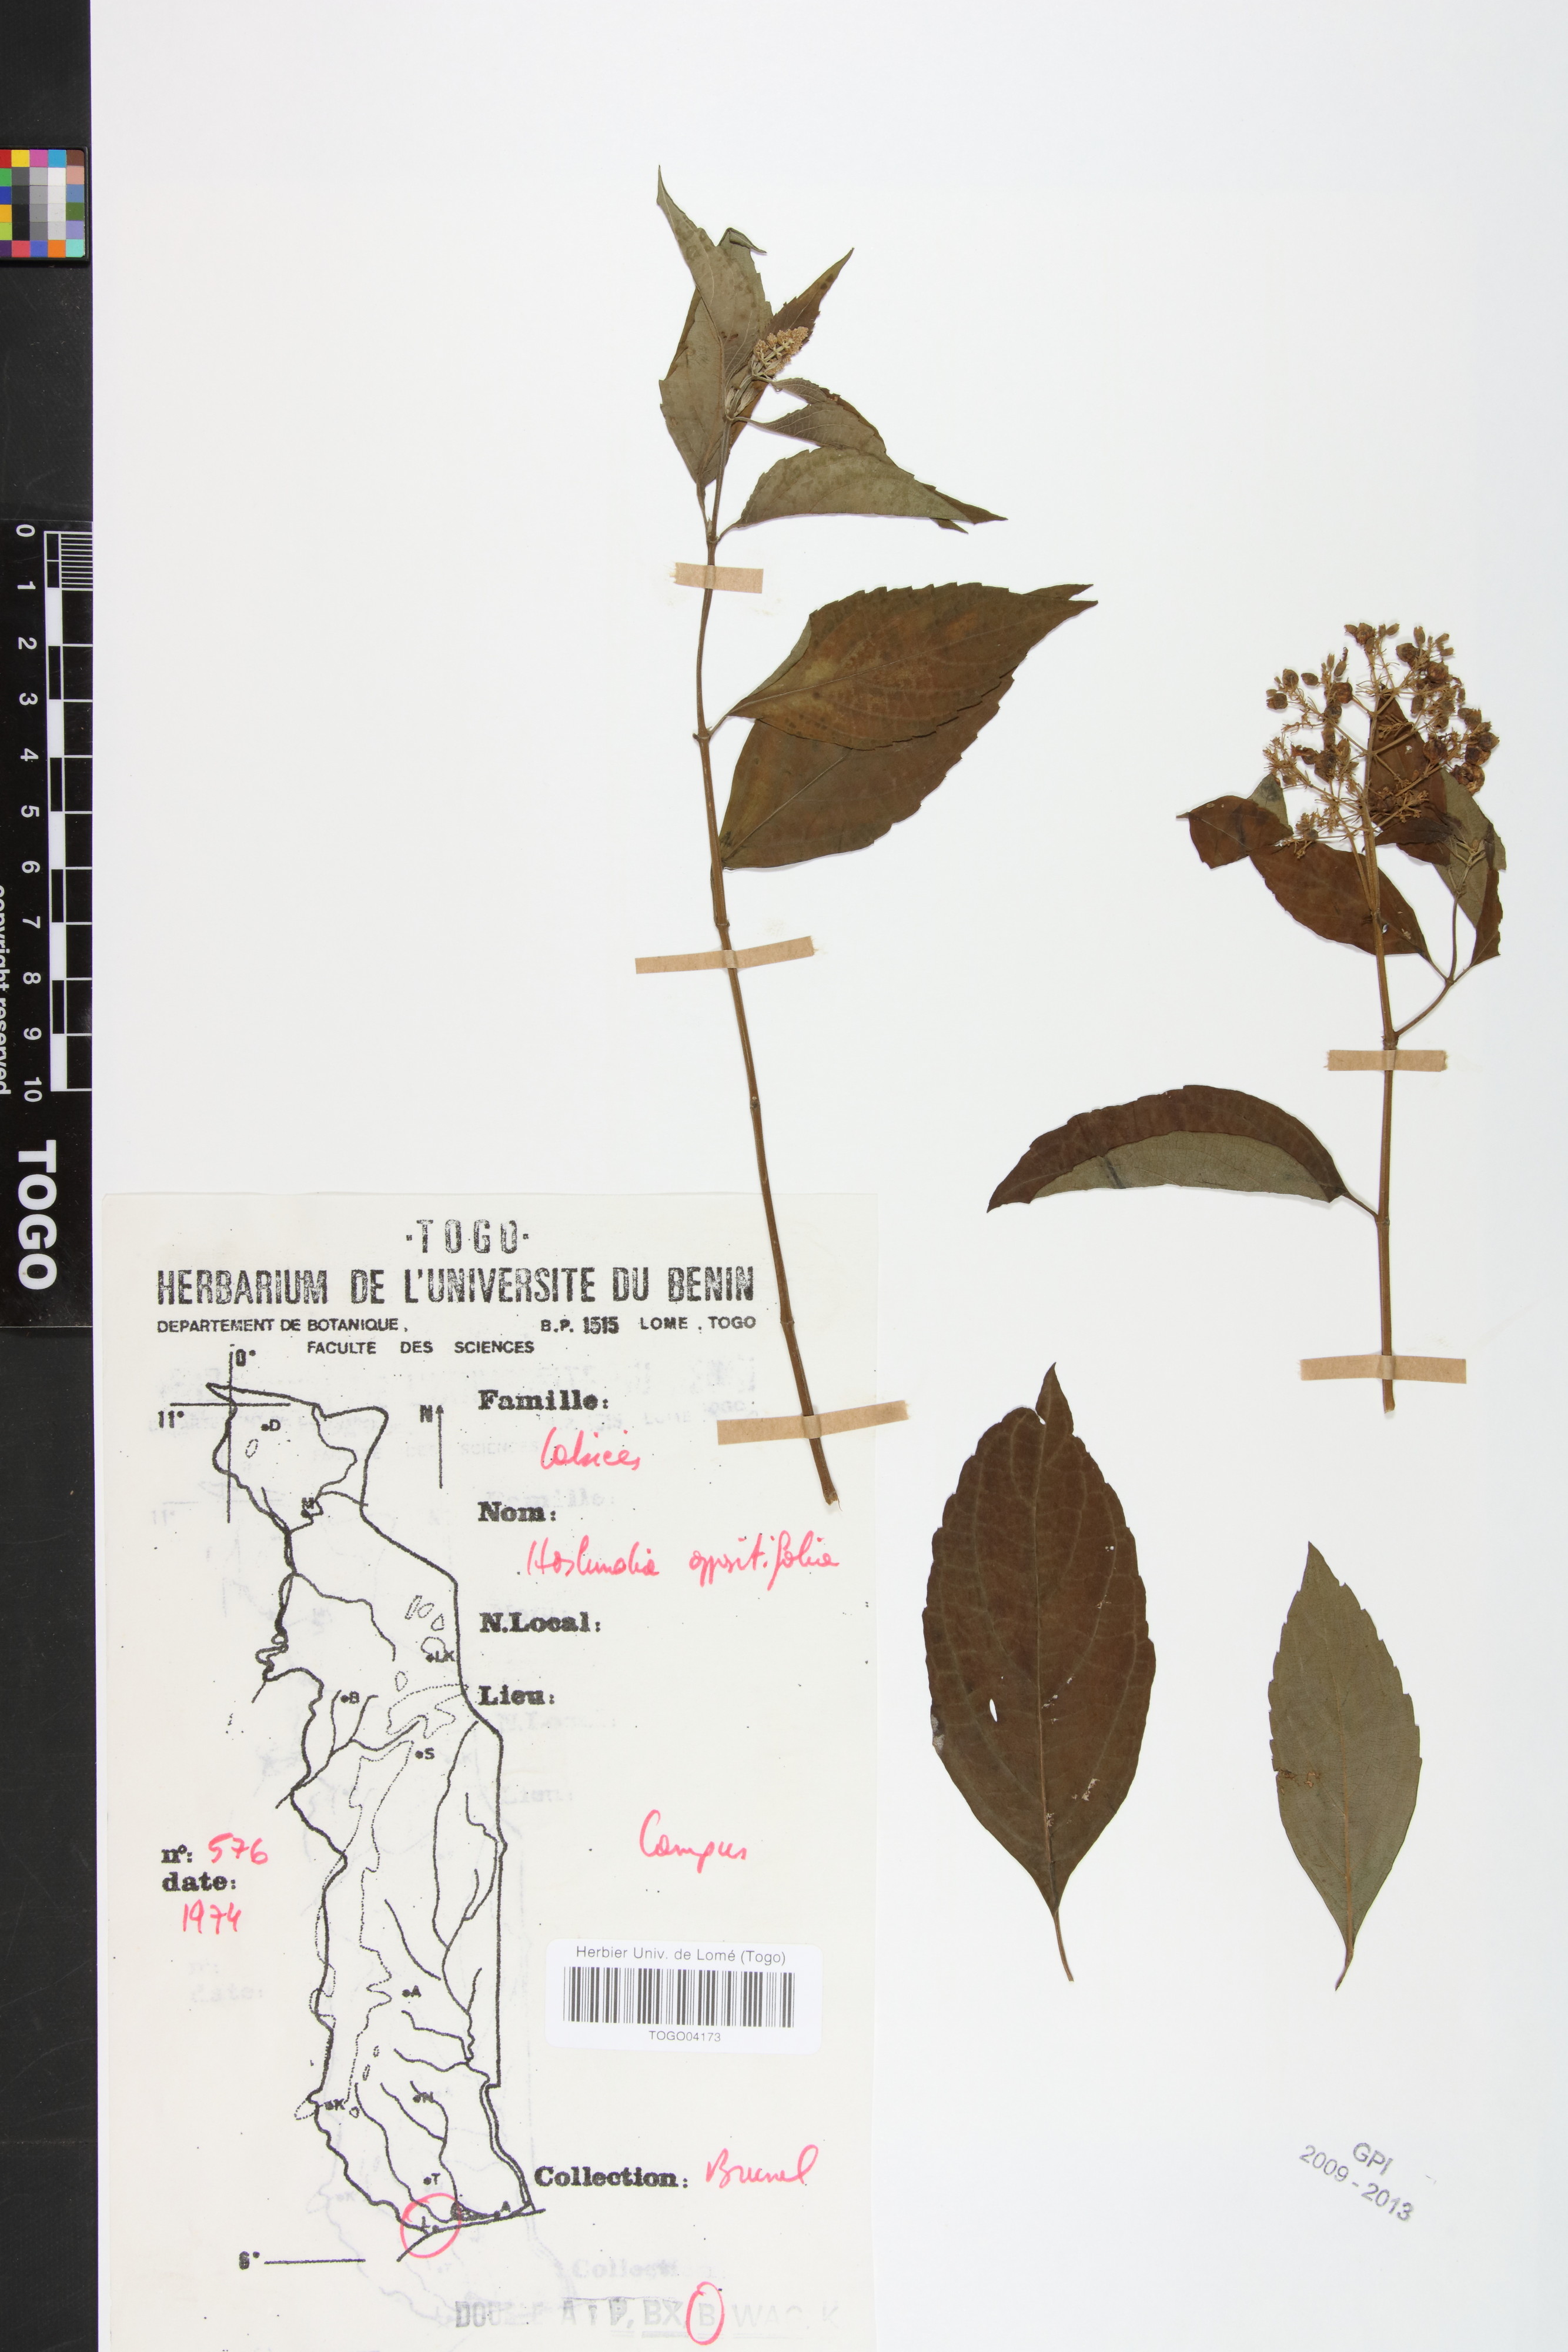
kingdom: Plantae
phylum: Tracheophyta
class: Magnoliopsida
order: Lamiales
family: Lamiaceae
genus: Hoslundia
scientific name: Hoslundia opposita
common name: Kamyuye
